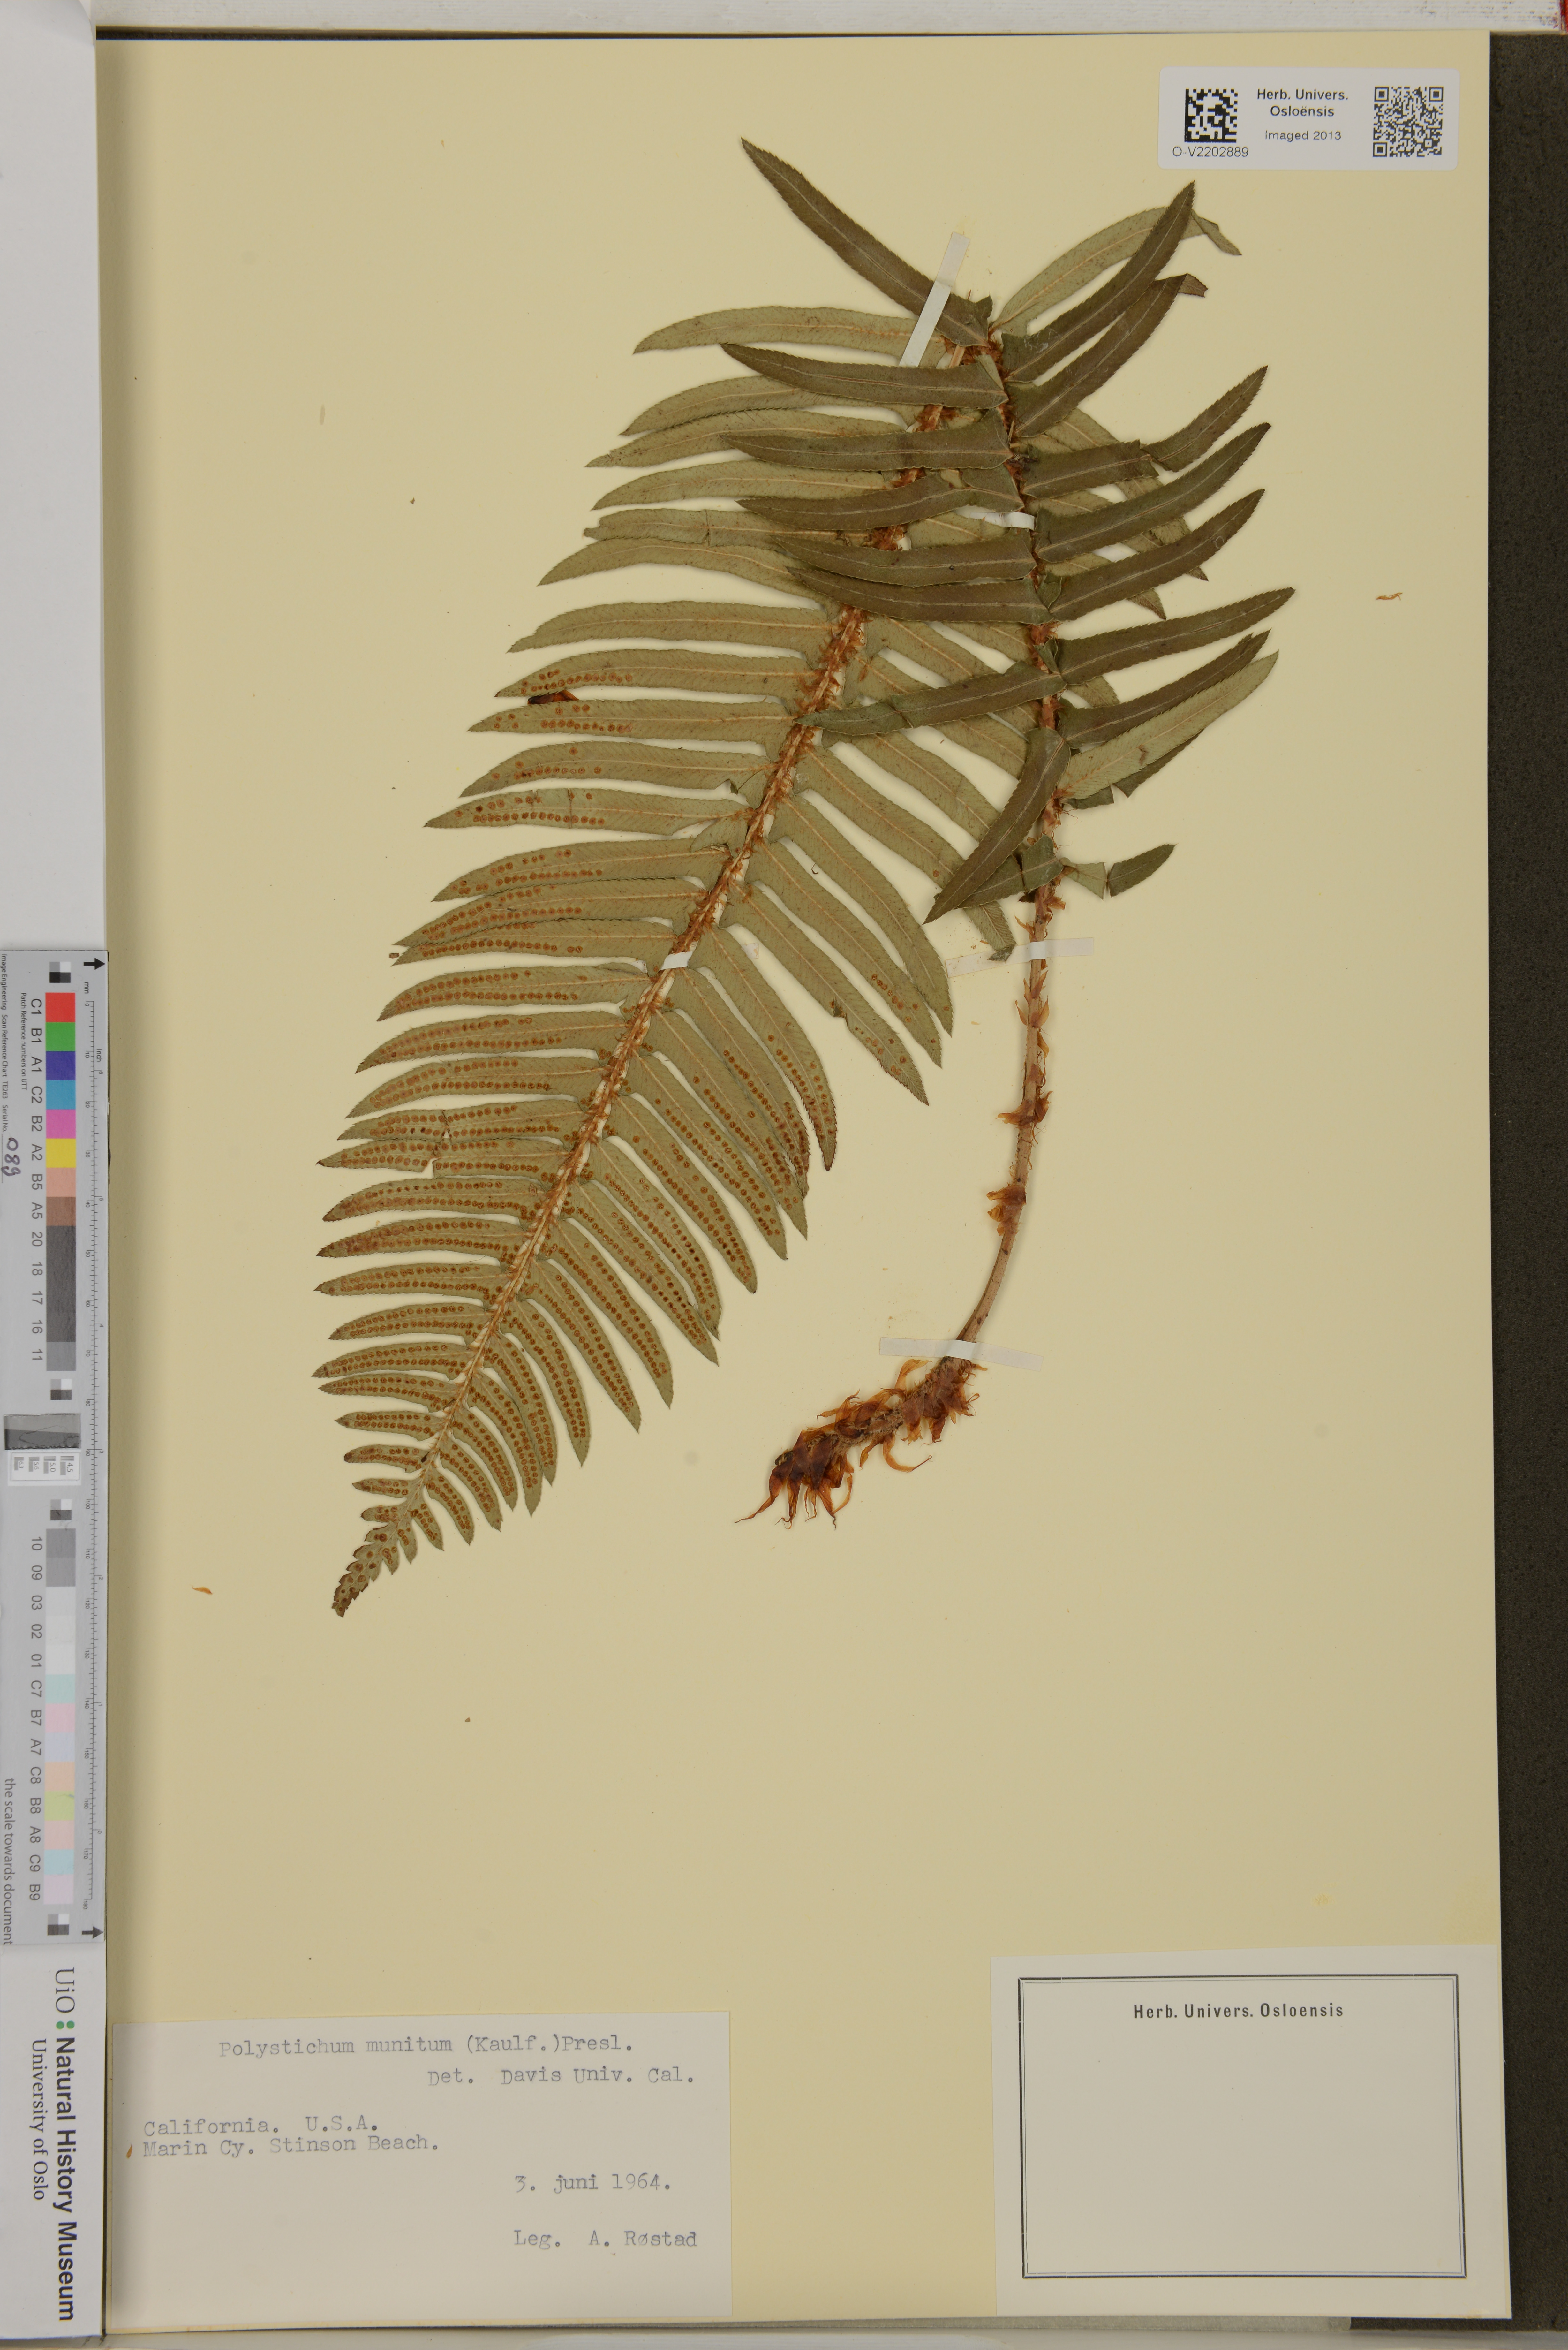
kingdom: Plantae
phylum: Tracheophyta
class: Polypodiopsida
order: Polypodiales
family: Dryopteridaceae
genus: Polystichum
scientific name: Polystichum munitum
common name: Western sword-fern
